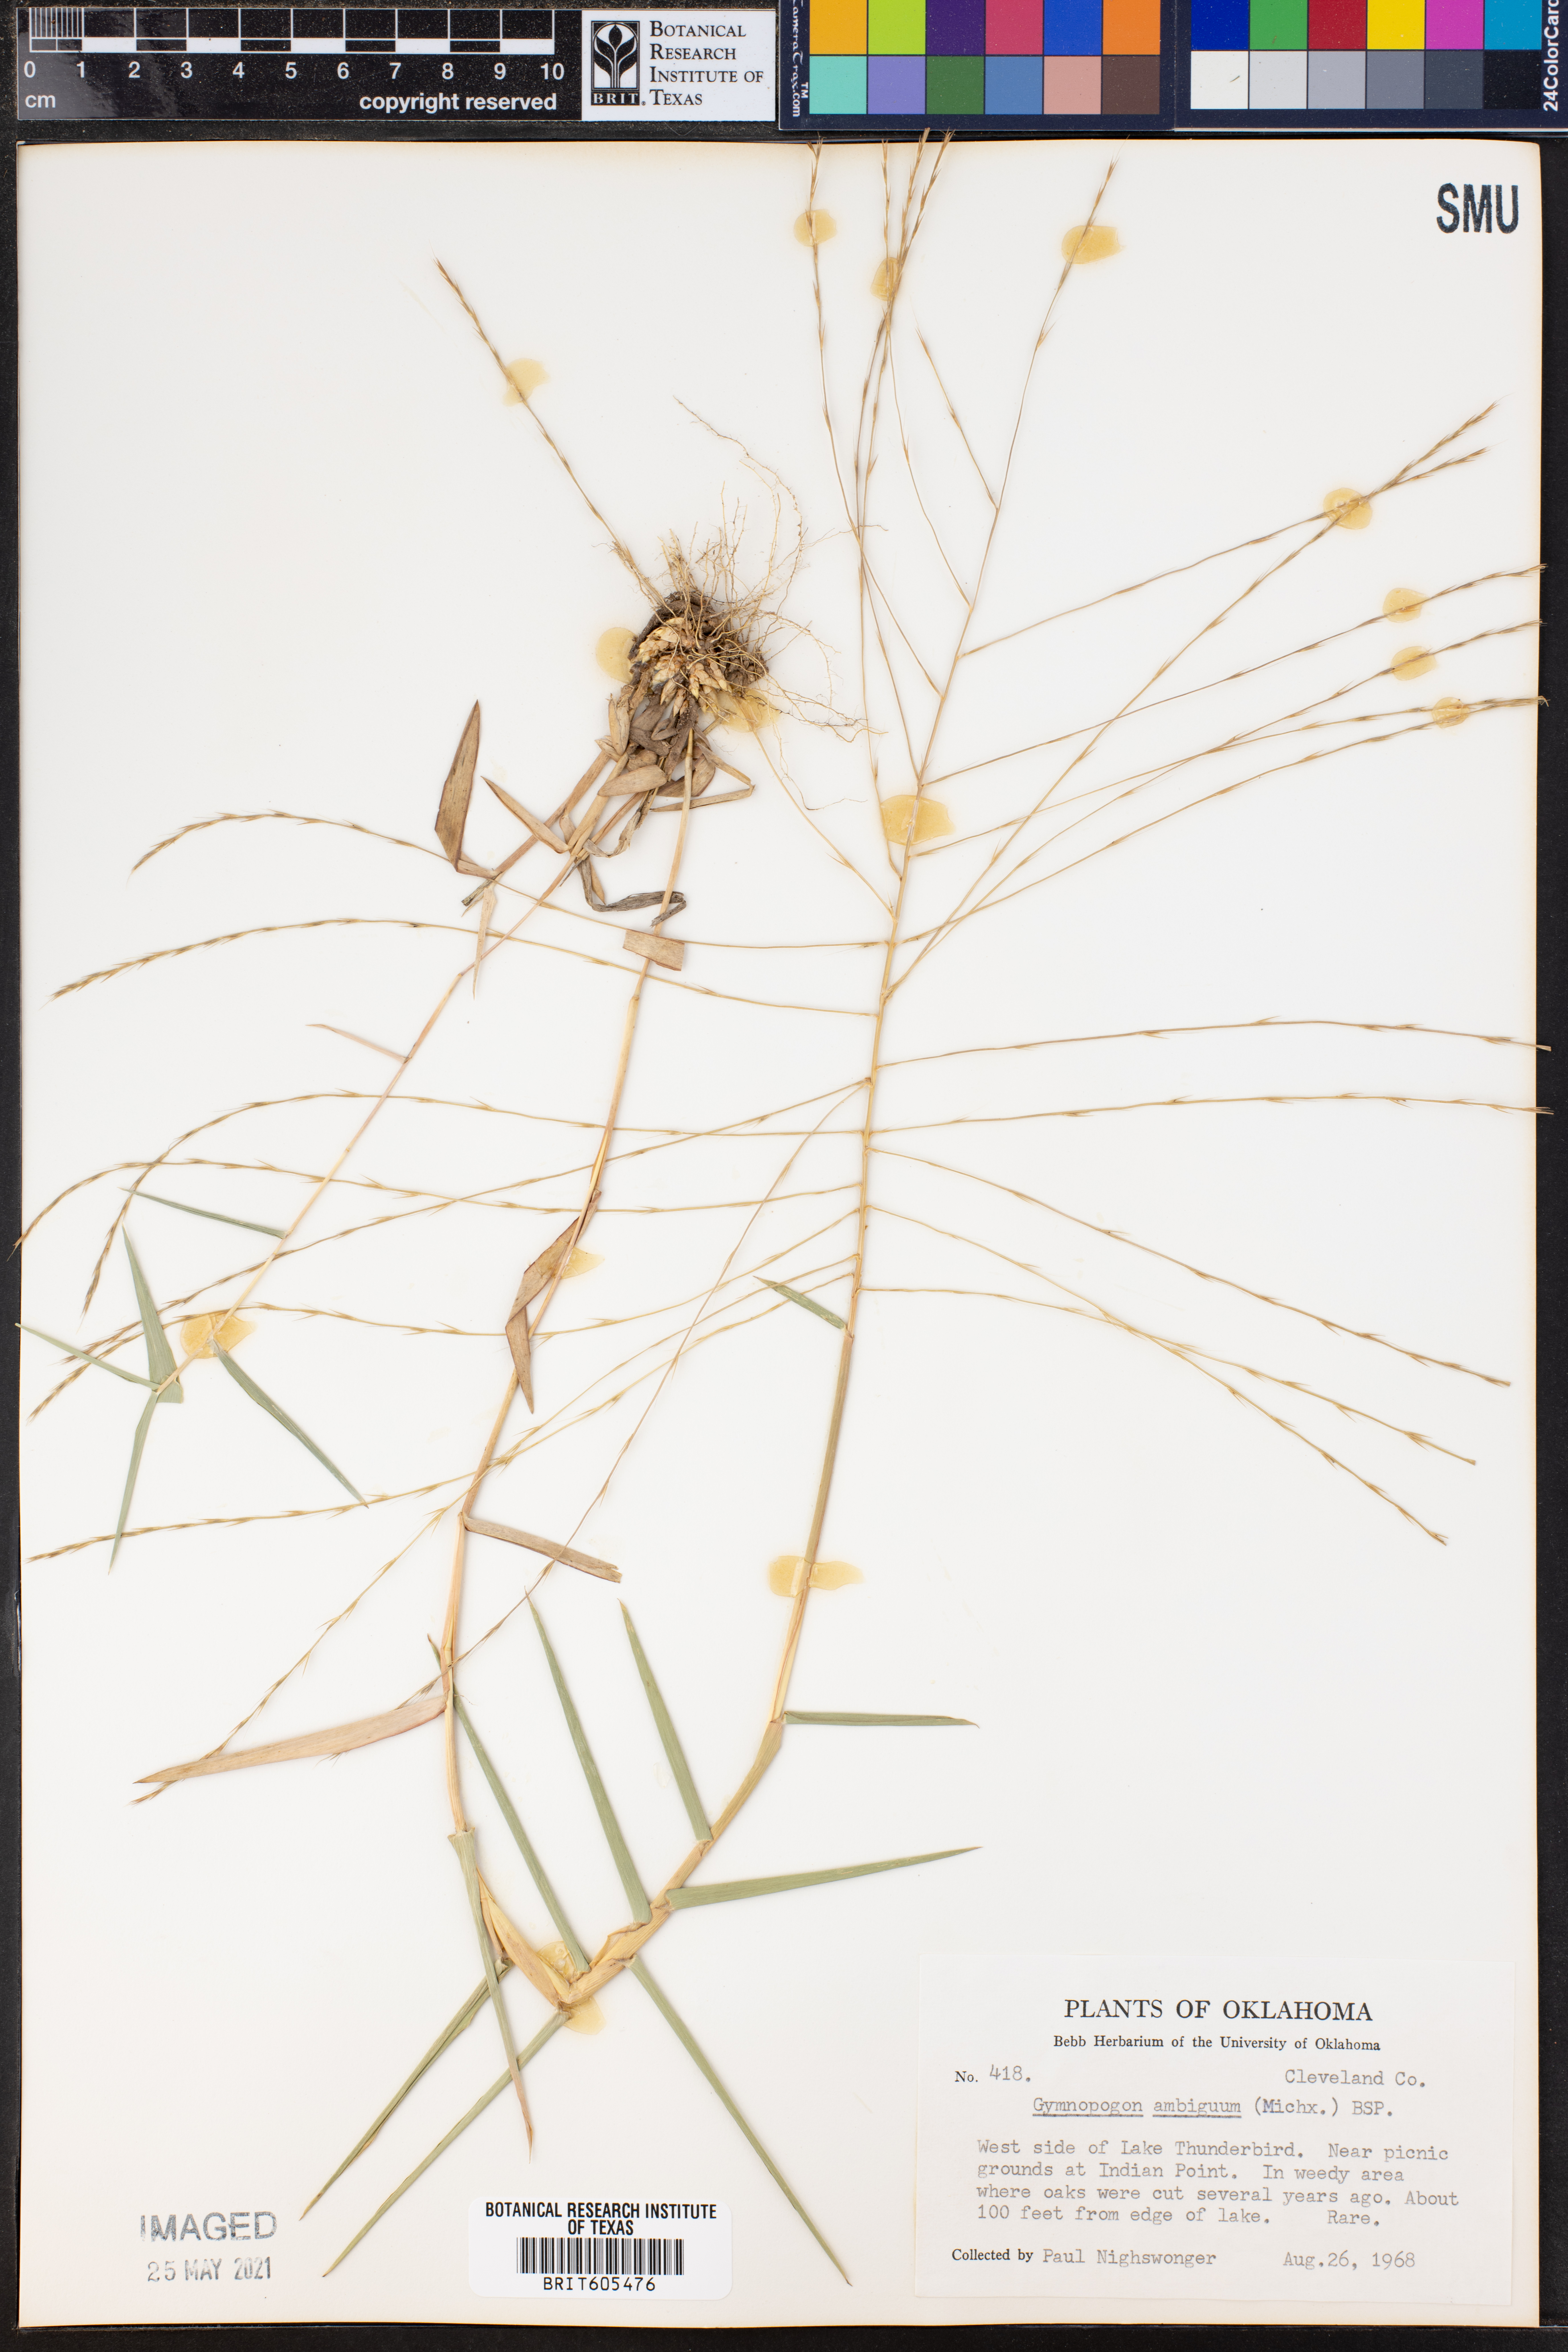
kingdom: Plantae
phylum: Tracheophyta
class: Liliopsida
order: Poales
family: Poaceae
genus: Gymnopogon
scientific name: Gymnopogon ambiguus
